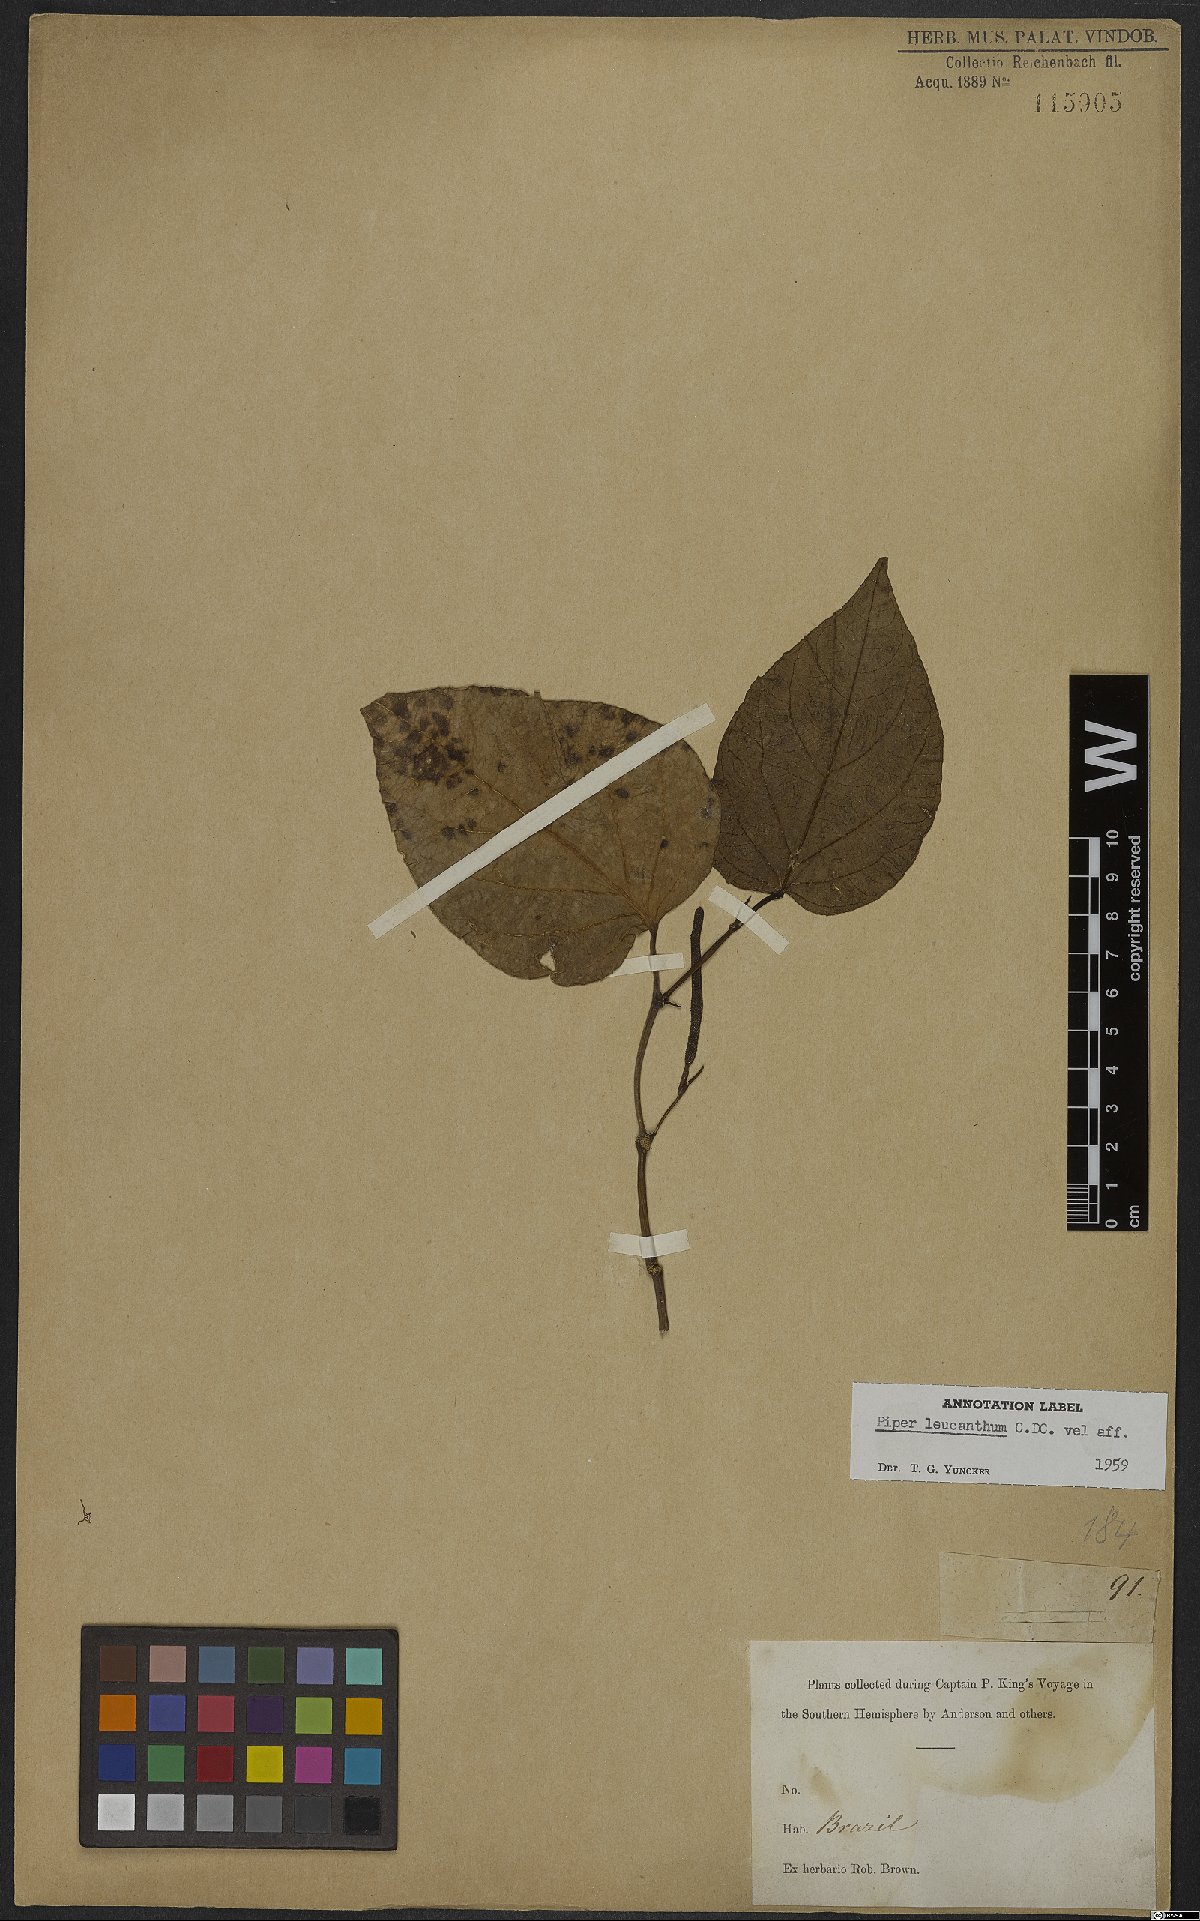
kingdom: Plantae
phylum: Tracheophyta
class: Magnoliopsida
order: Piperales
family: Piperaceae
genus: Piper
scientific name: Piper solmsianum
